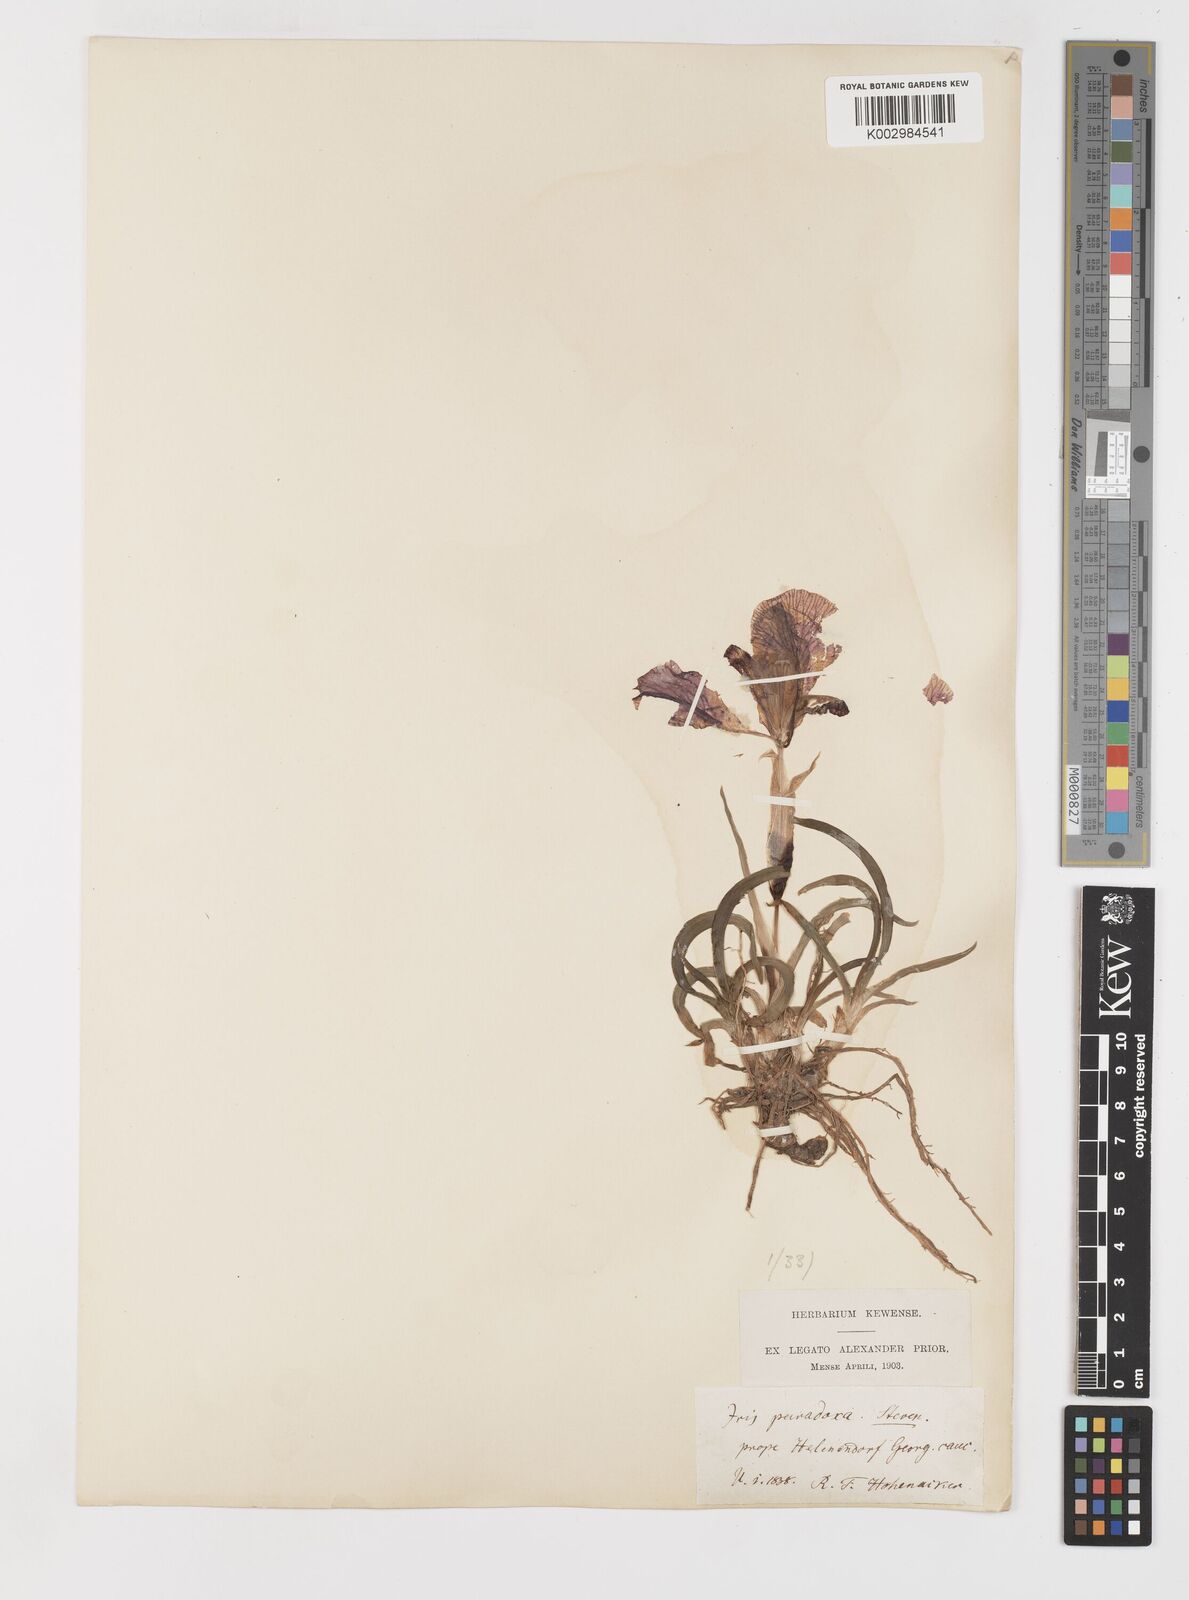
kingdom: Plantae
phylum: Tracheophyta
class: Liliopsida
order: Asparagales
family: Iridaceae
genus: Iris
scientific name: Iris paradoxa
